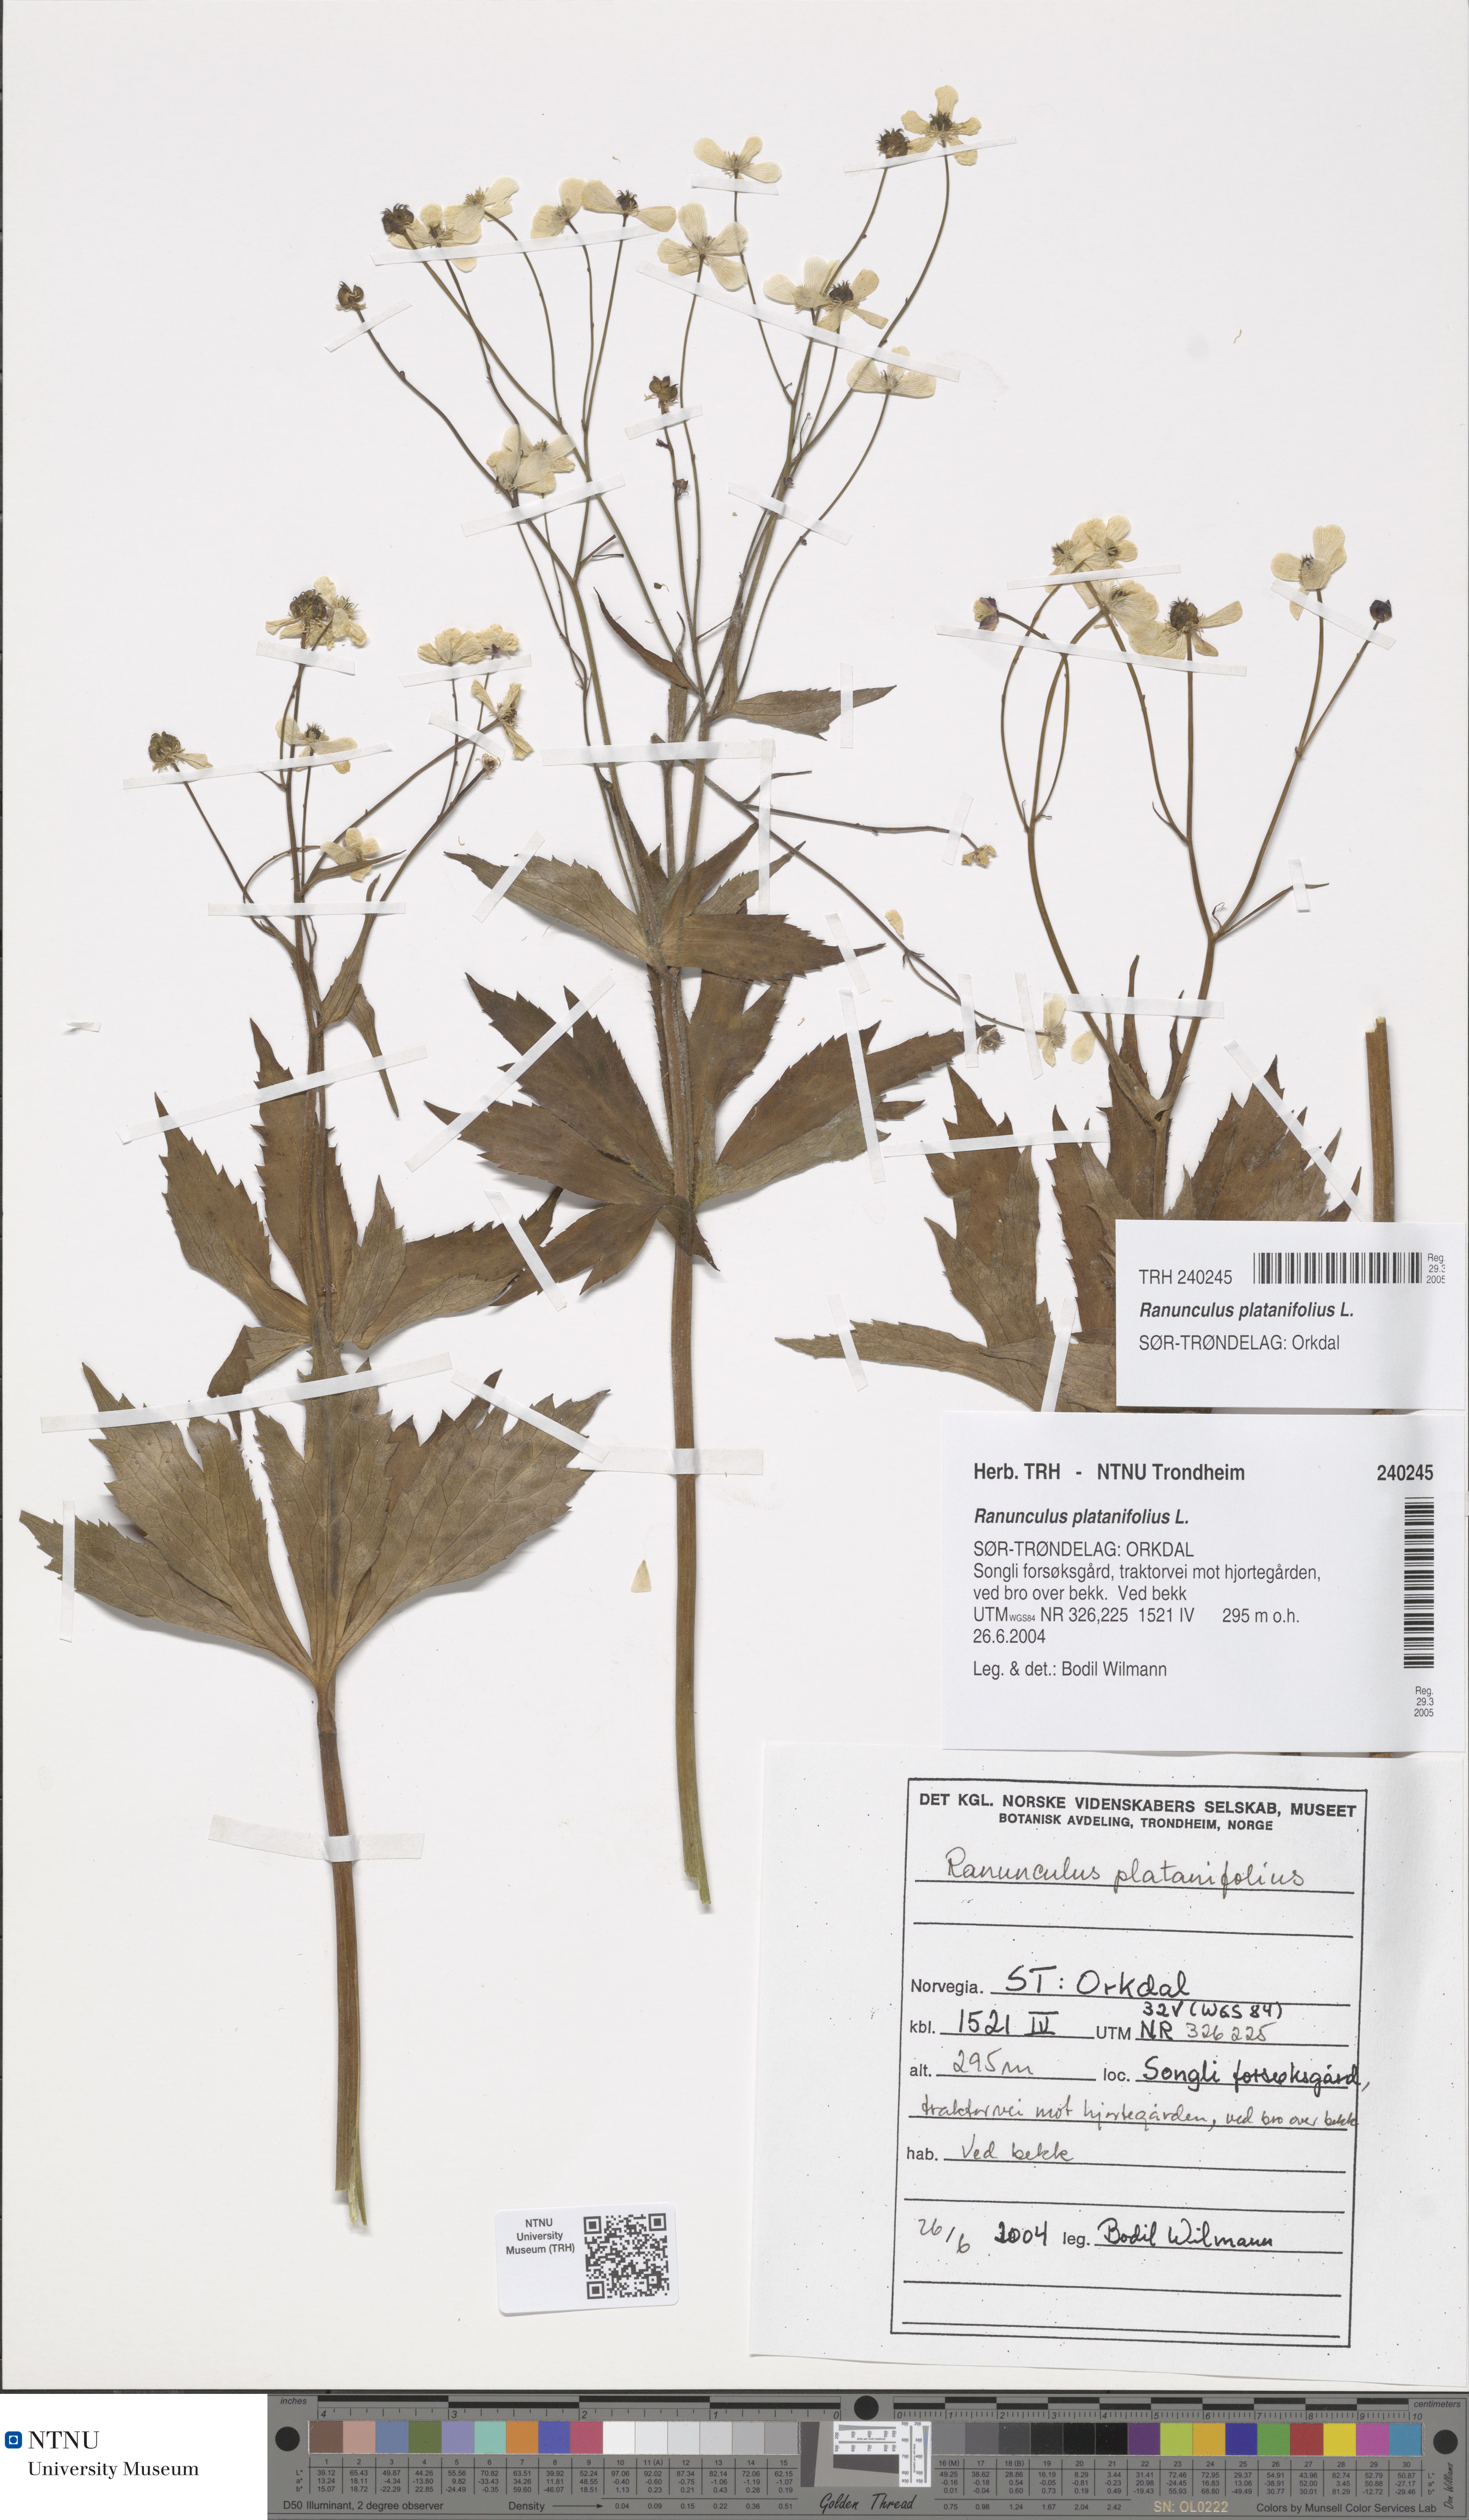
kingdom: Plantae
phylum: Tracheophyta
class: Magnoliopsida
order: Ranunculales
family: Ranunculaceae
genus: Ranunculus
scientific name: Ranunculus platanifolius
